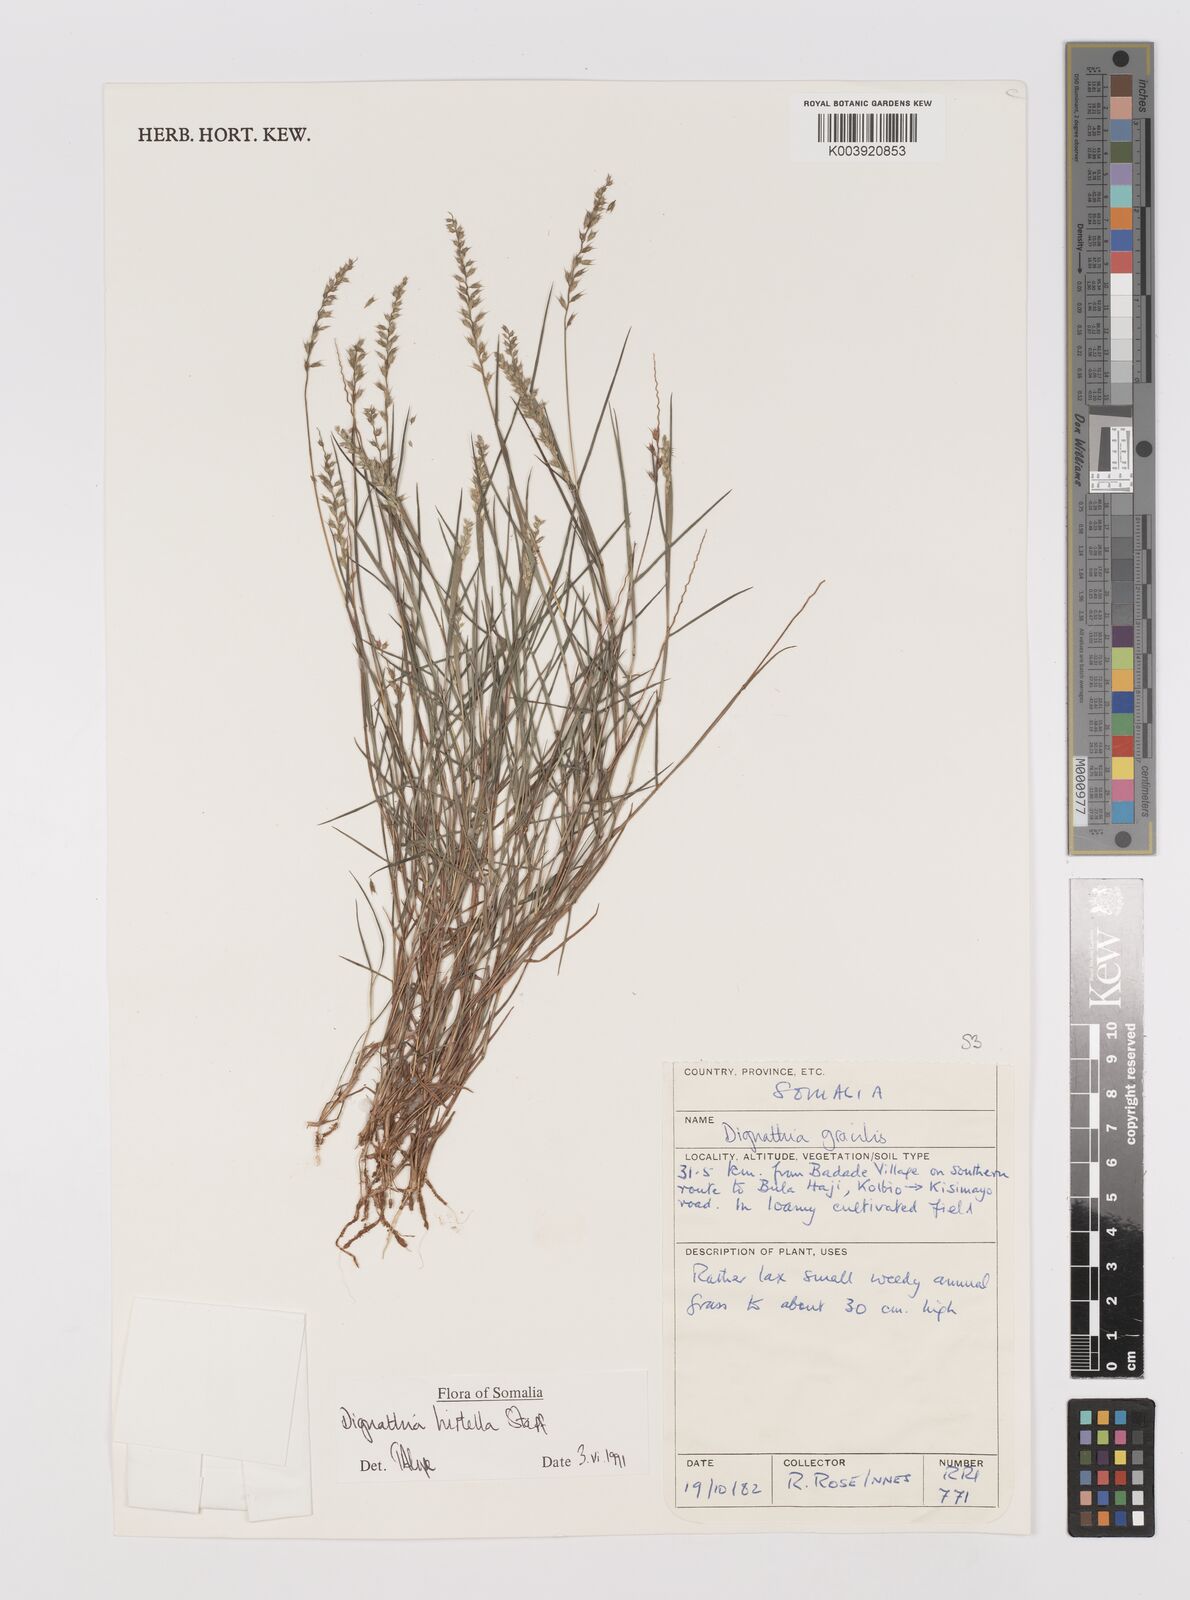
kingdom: Plantae
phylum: Tracheophyta
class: Liliopsida
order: Poales
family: Poaceae
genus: Dignathia
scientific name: Dignathia hirtella
